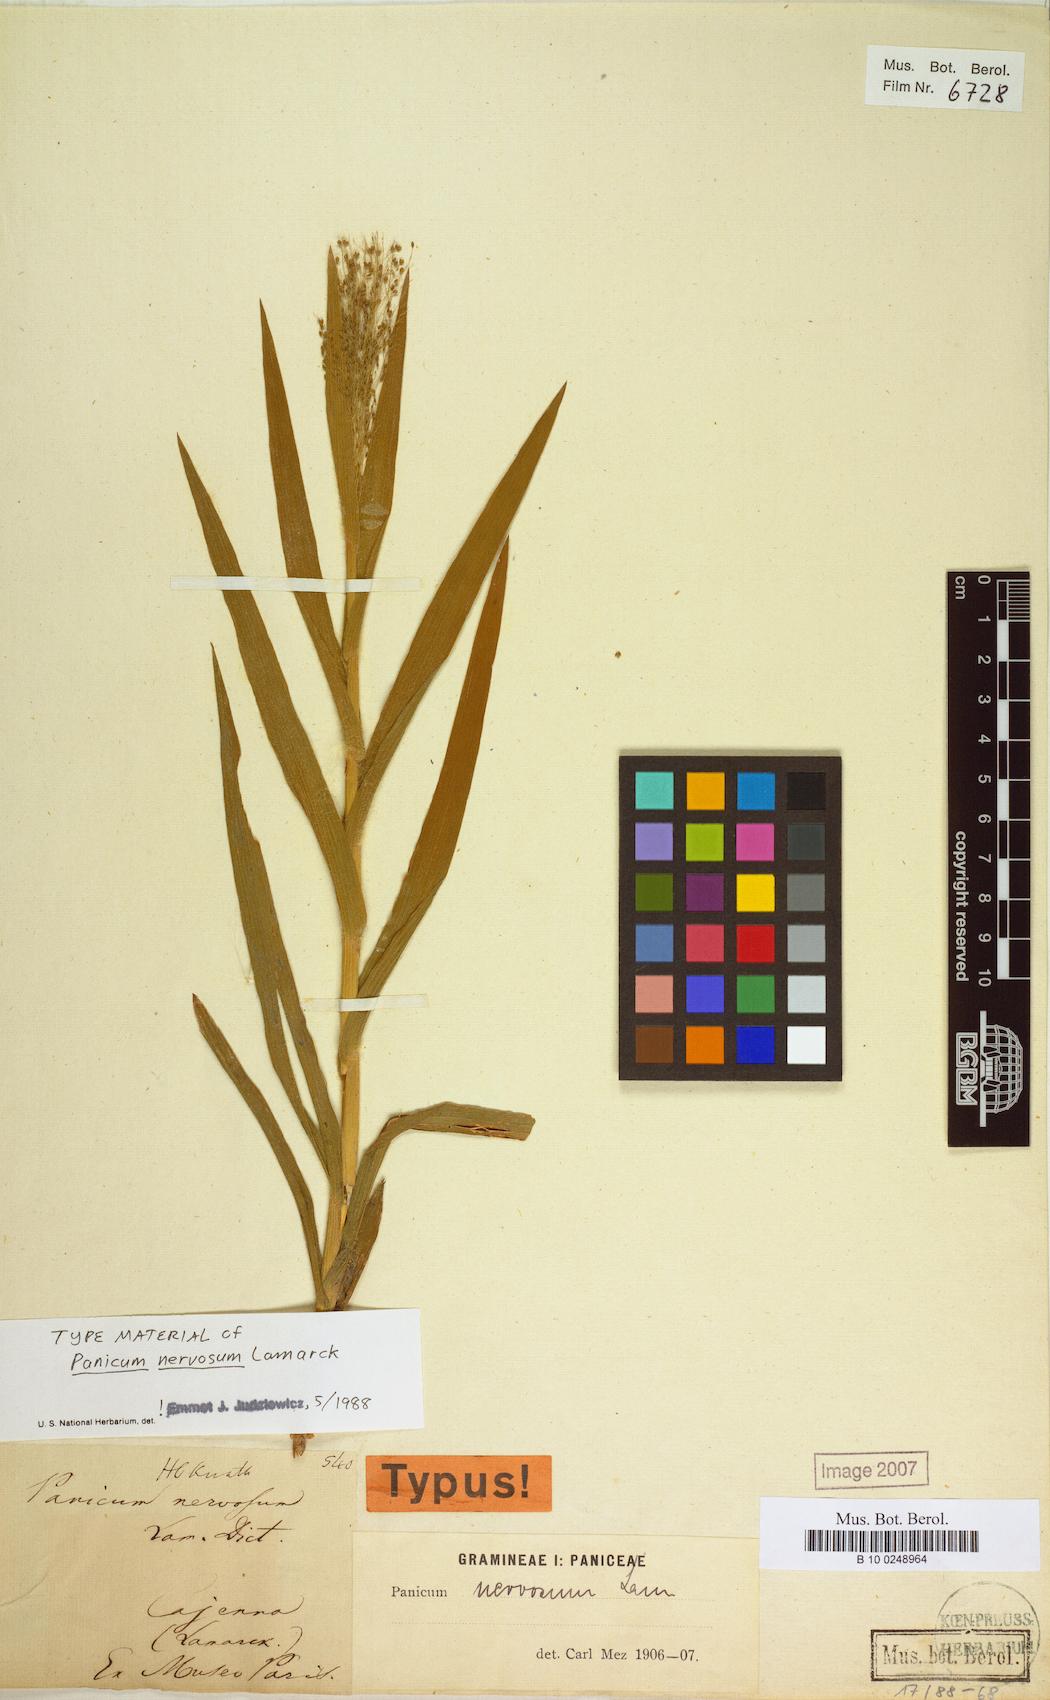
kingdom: Plantae
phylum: Tracheophyta
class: Liliopsida
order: Poales
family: Poaceae
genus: Dichanthelium
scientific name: Dichanthelium commutatum
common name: Variable witchgrass
